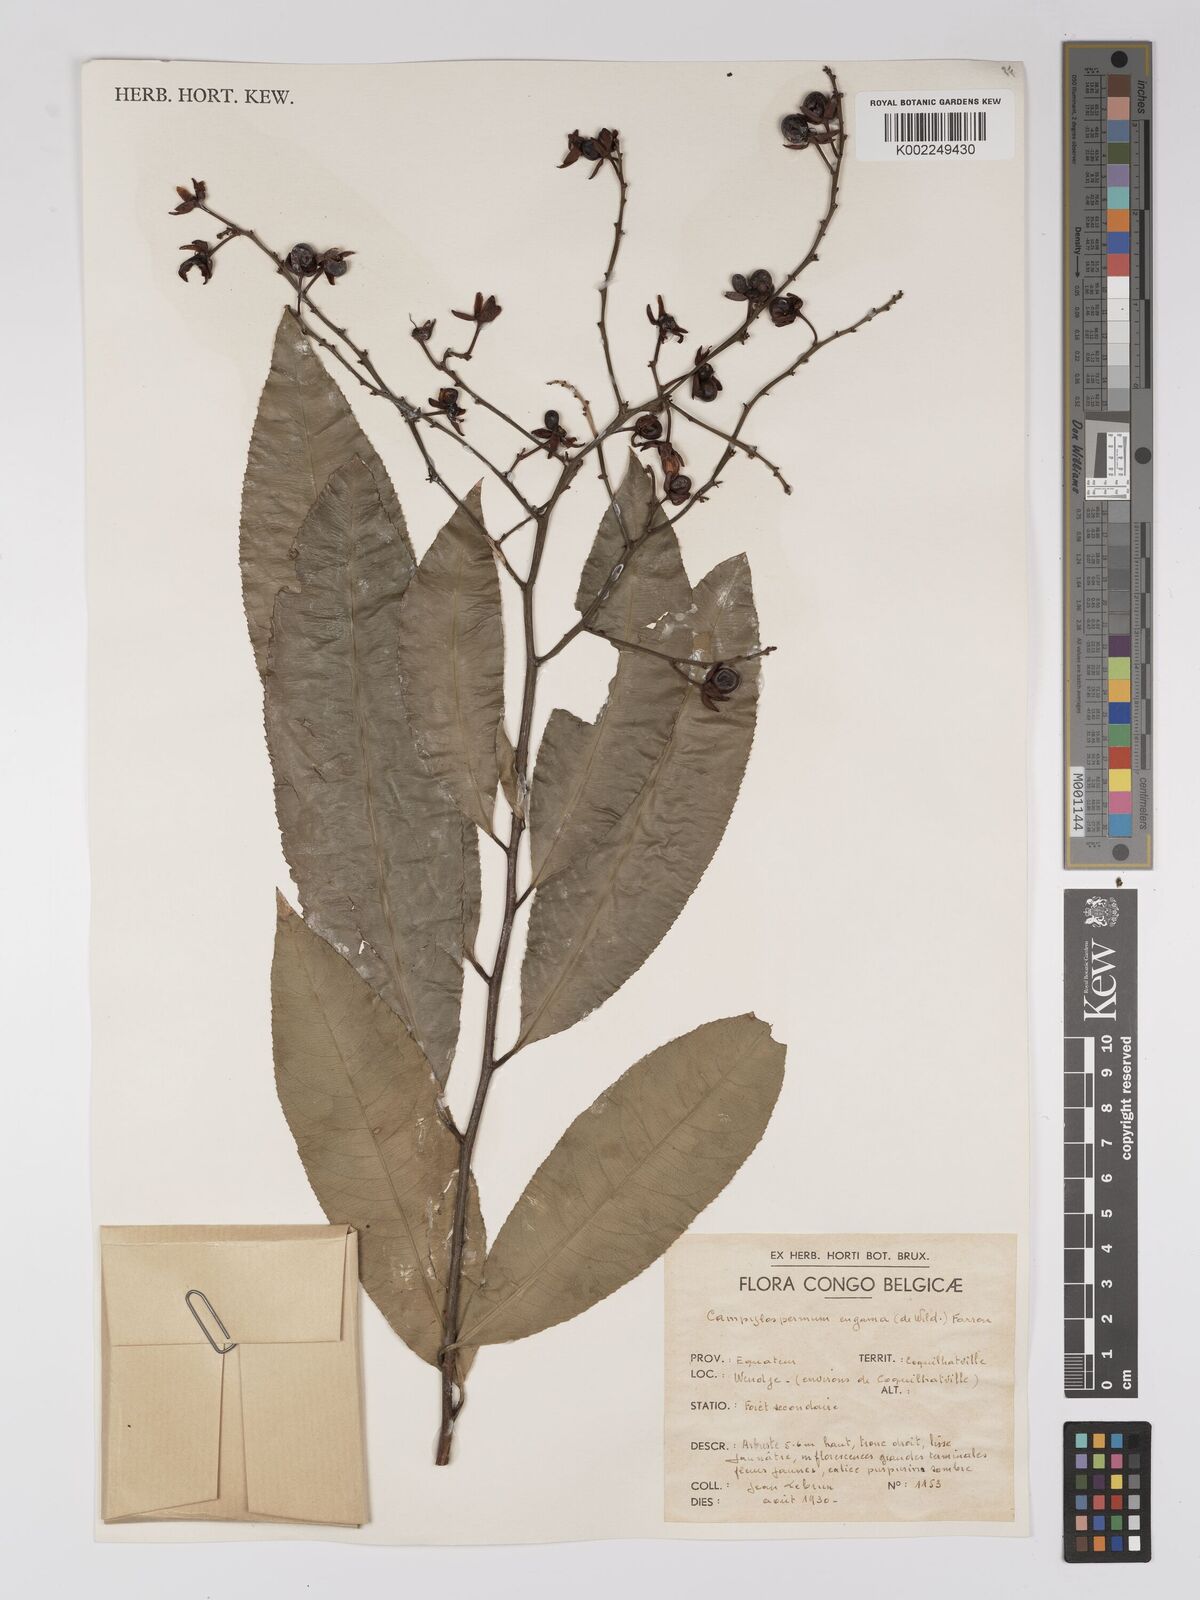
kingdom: Plantae
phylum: Tracheophyta
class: Magnoliopsida
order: Malpighiales
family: Ochnaceae
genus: Campylospermum
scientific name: Campylospermum engama
